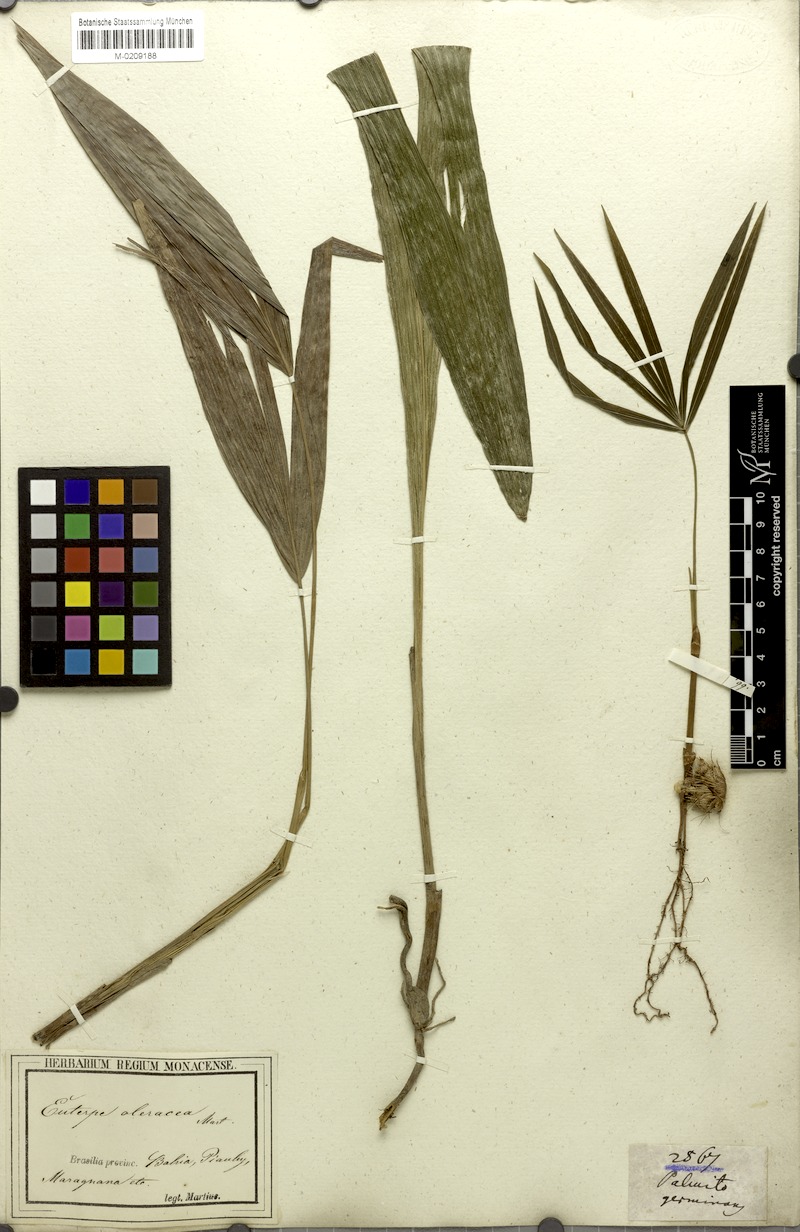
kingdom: Plantae
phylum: Tracheophyta
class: Liliopsida
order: Arecales
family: Arecaceae
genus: Euterpe
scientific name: Euterpe oleracea
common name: Assai palm
